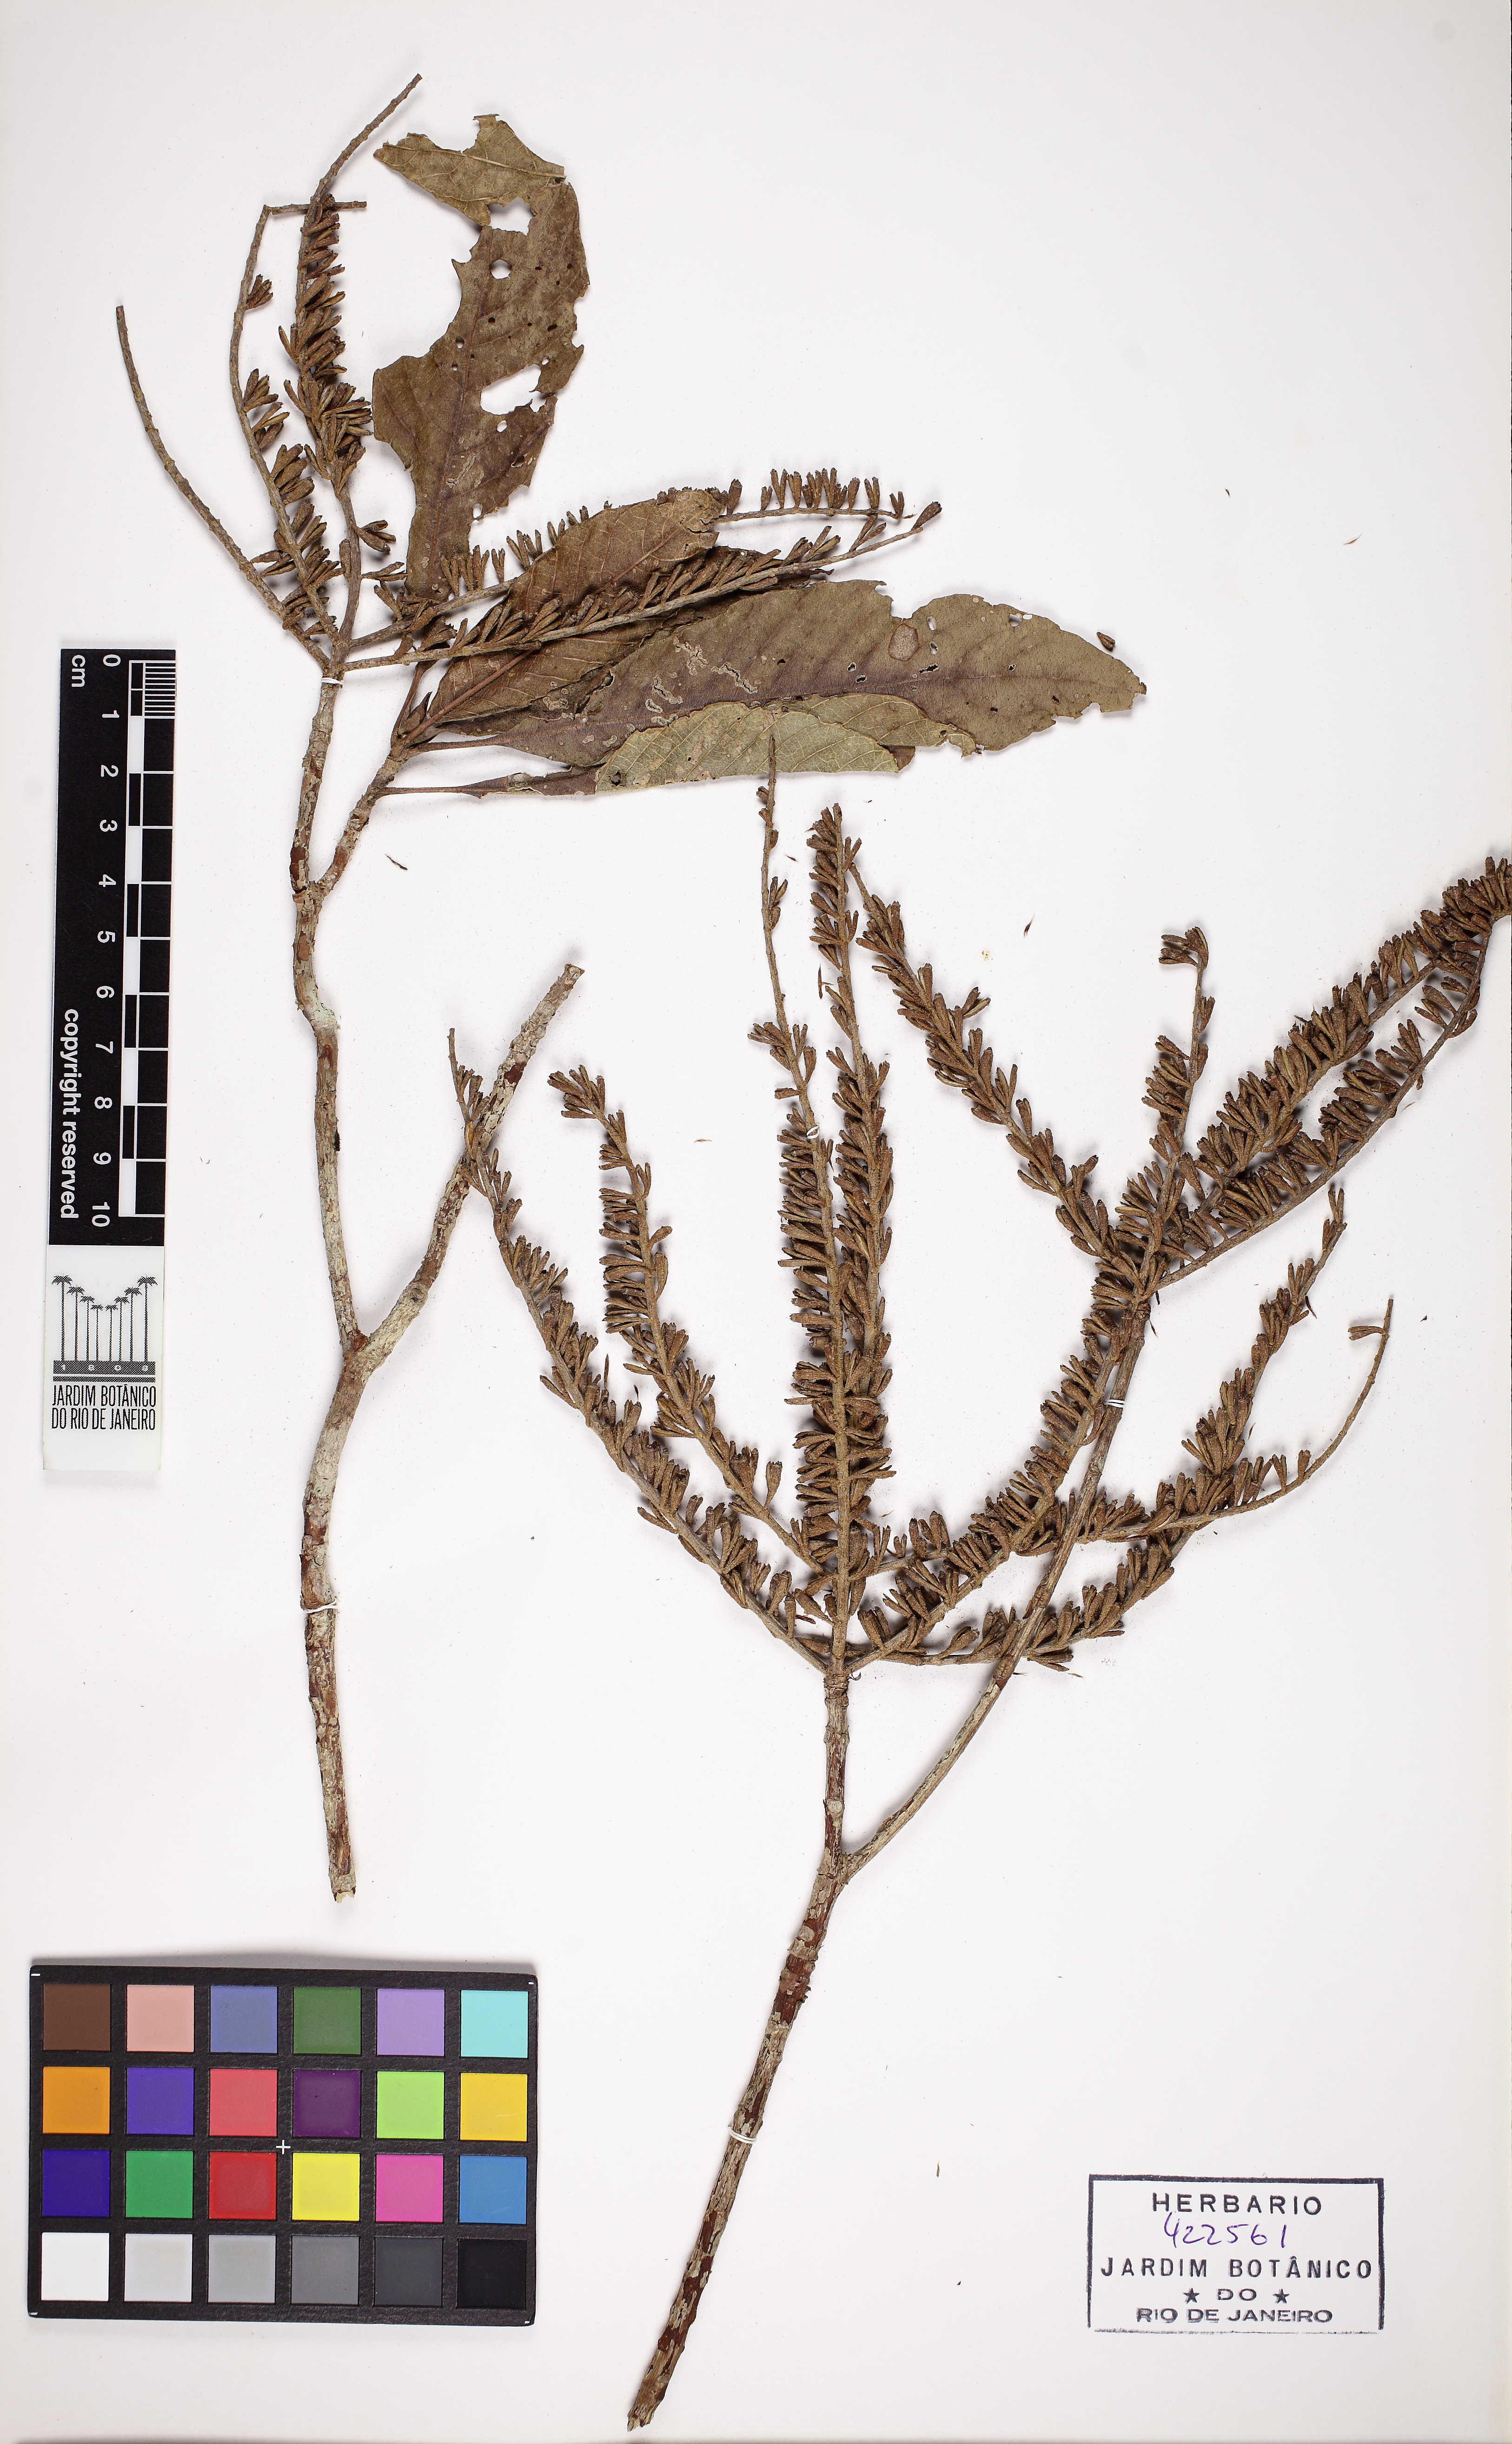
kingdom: Plantae
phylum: Tracheophyta
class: Magnoliopsida
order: Gentianales
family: Rubiaceae
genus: Alseis
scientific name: Alseis floribunda
